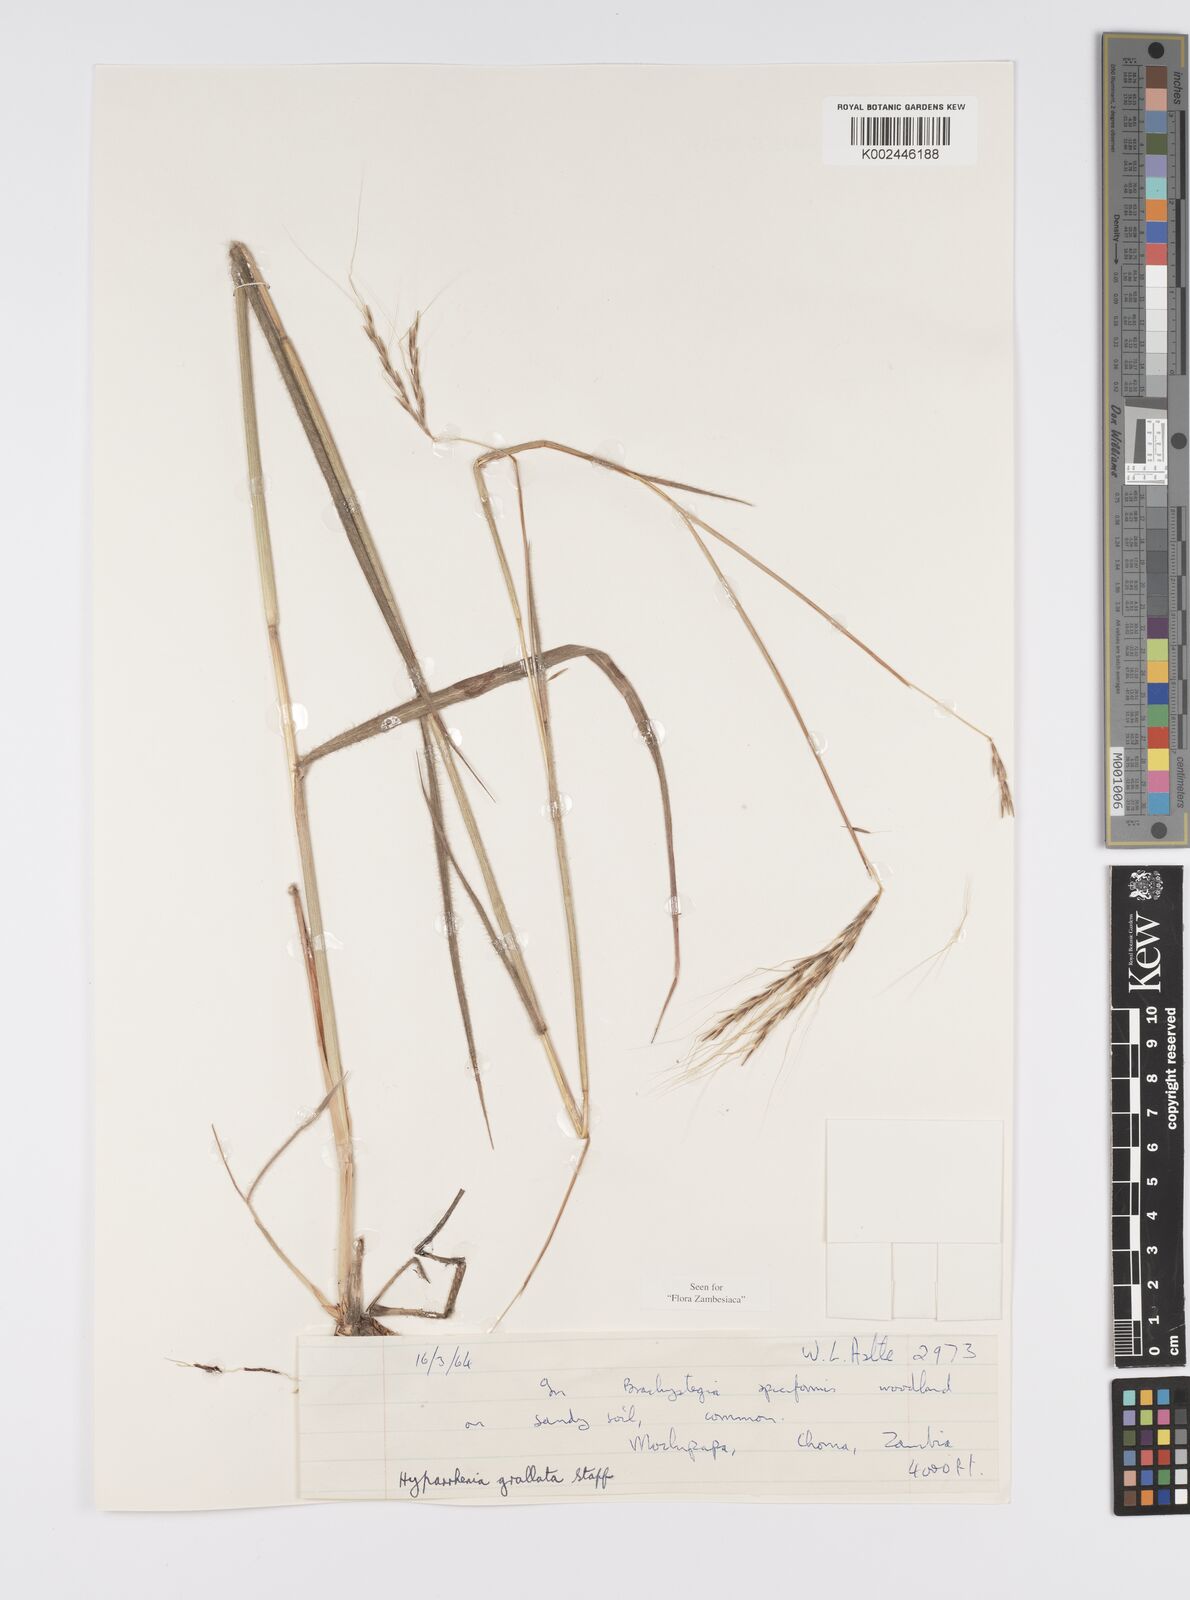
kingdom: Plantae
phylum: Tracheophyta
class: Liliopsida
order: Poales
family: Poaceae
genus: Elymandra
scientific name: Elymandra grallata
